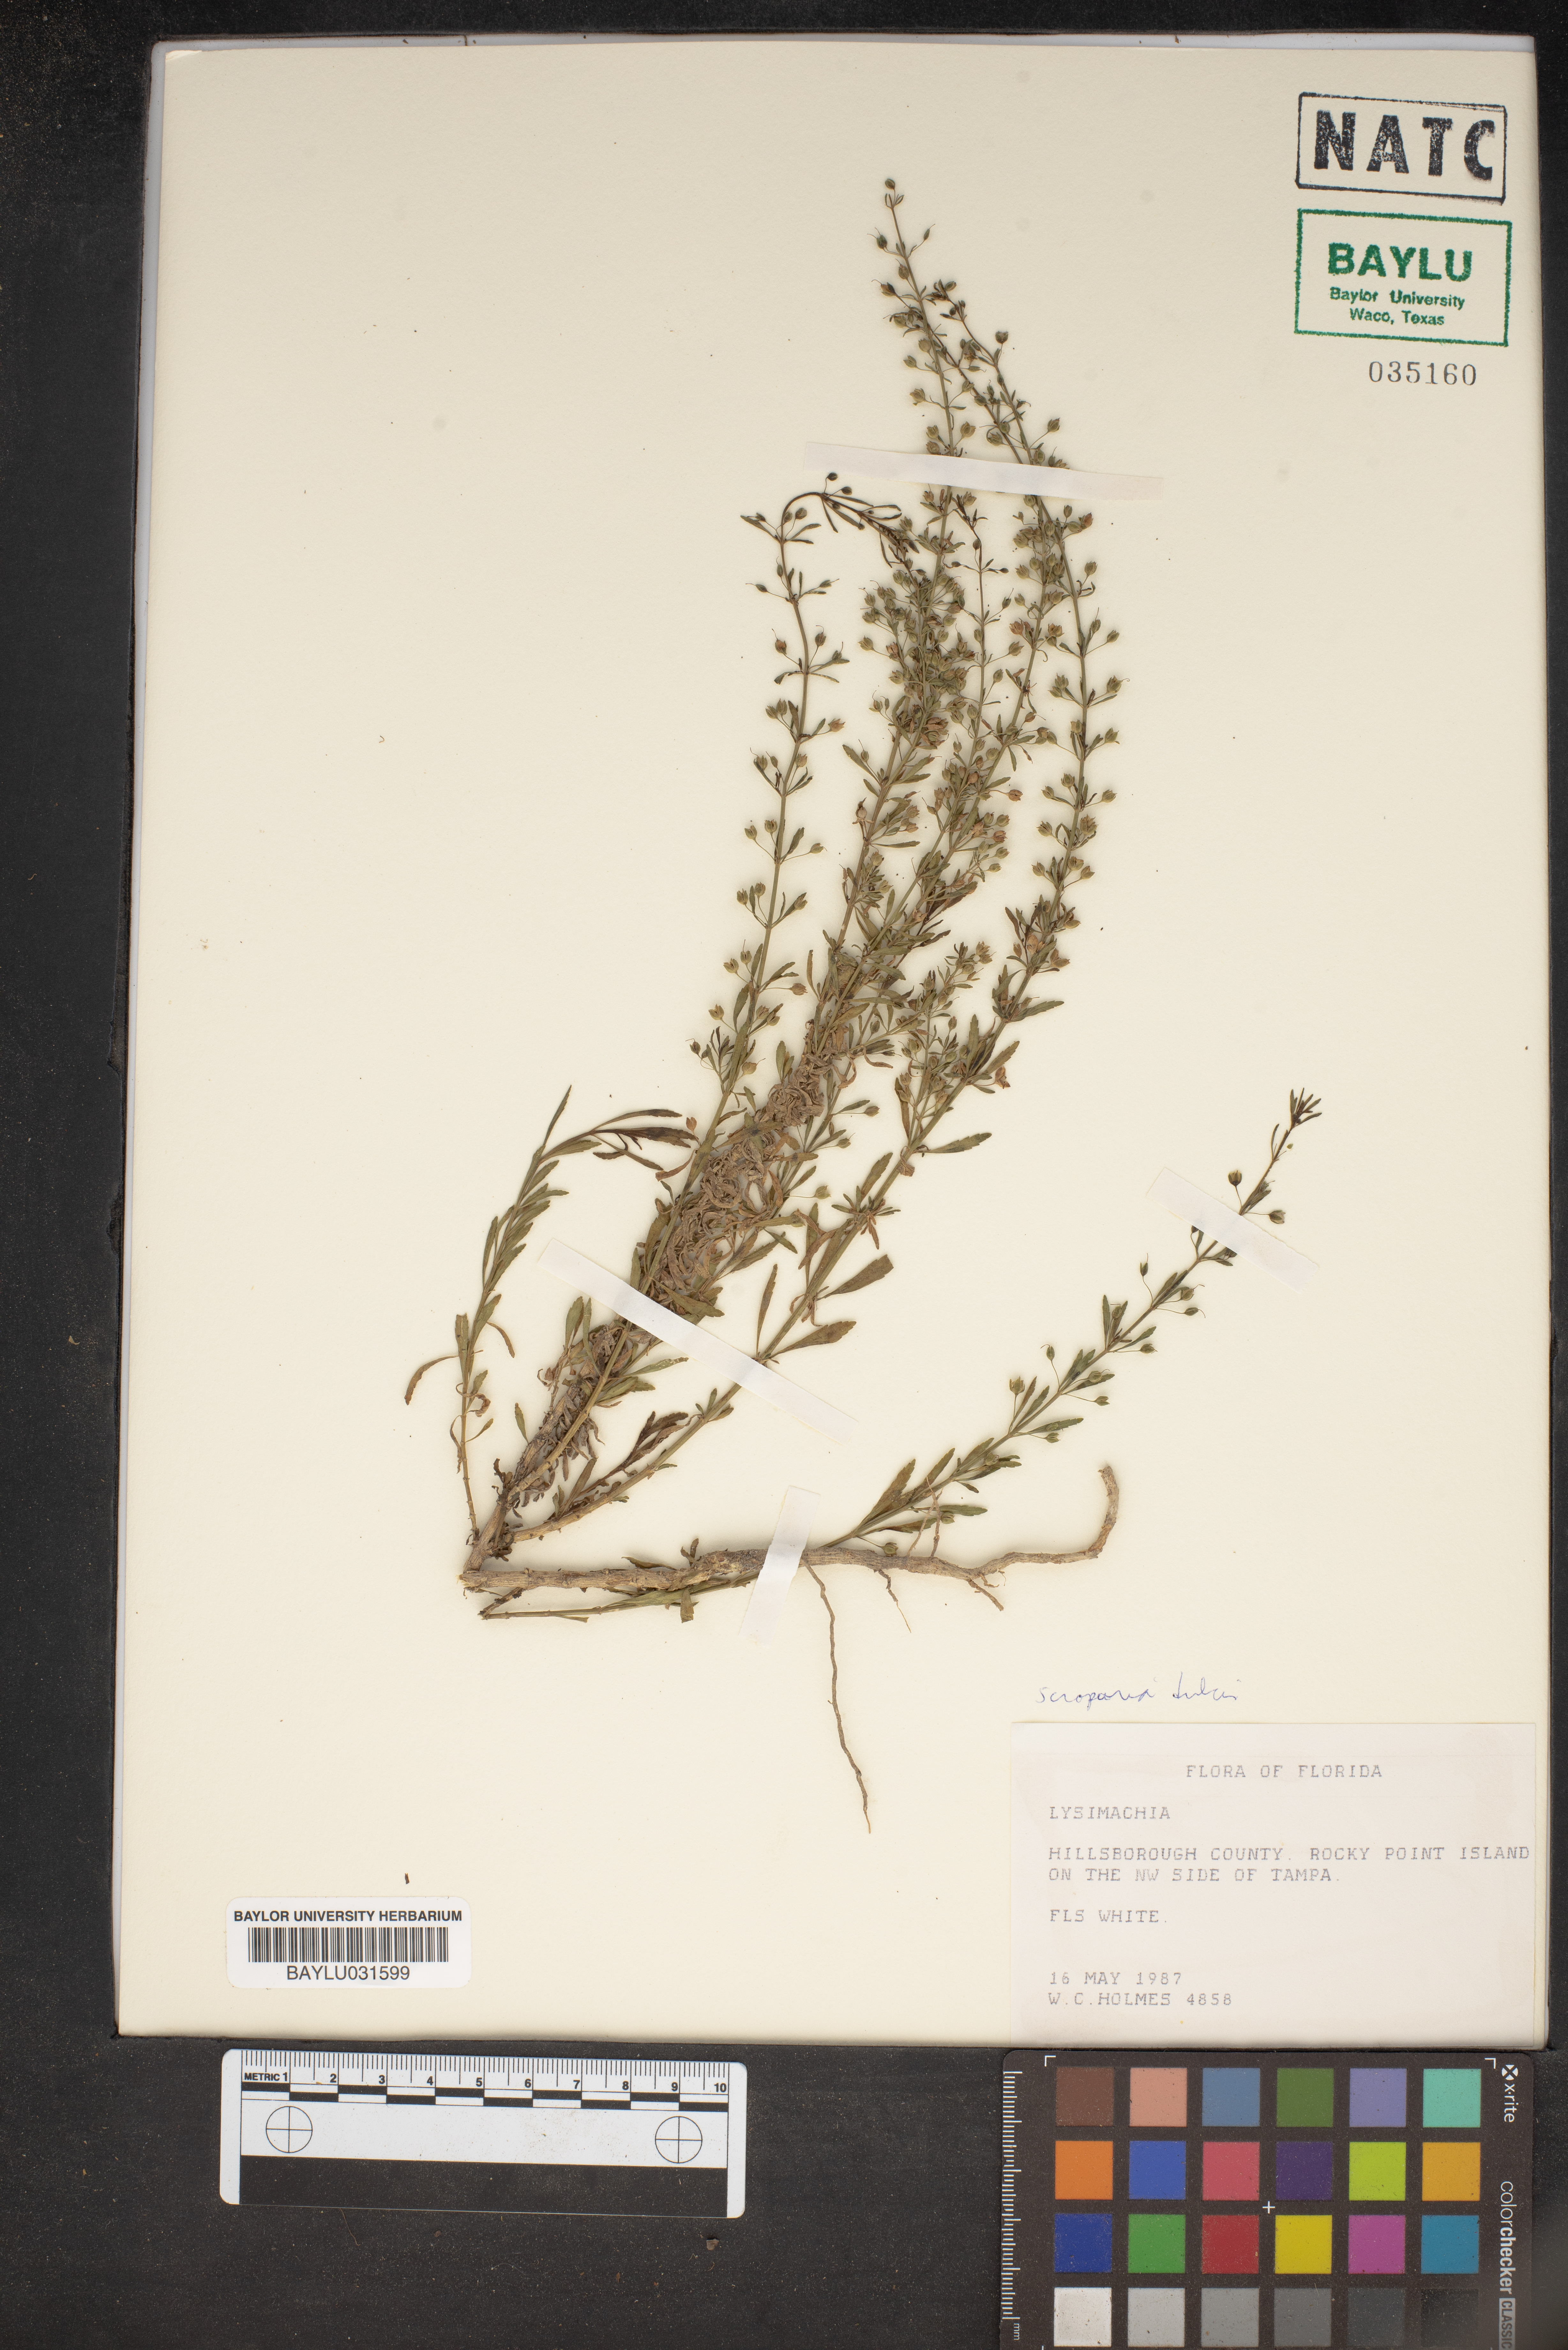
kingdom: Plantae
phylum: Tracheophyta
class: Magnoliopsida
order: Ericales
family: Primulaceae
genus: Lysimachia
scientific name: Lysimachia
